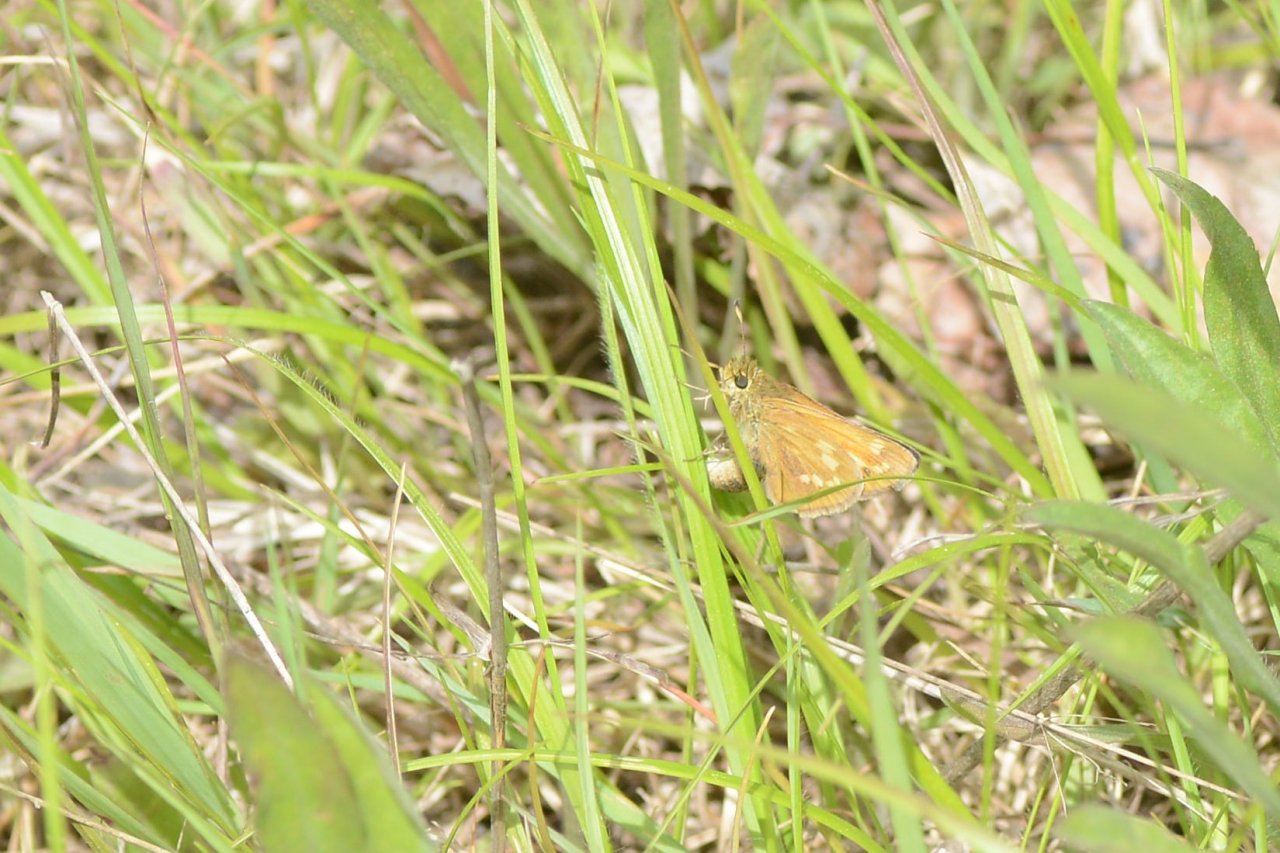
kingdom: Animalia
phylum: Arthropoda
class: Insecta
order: Lepidoptera
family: Hesperiidae
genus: Hesperia
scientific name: Hesperia sassacus
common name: Sassacus Skipper
